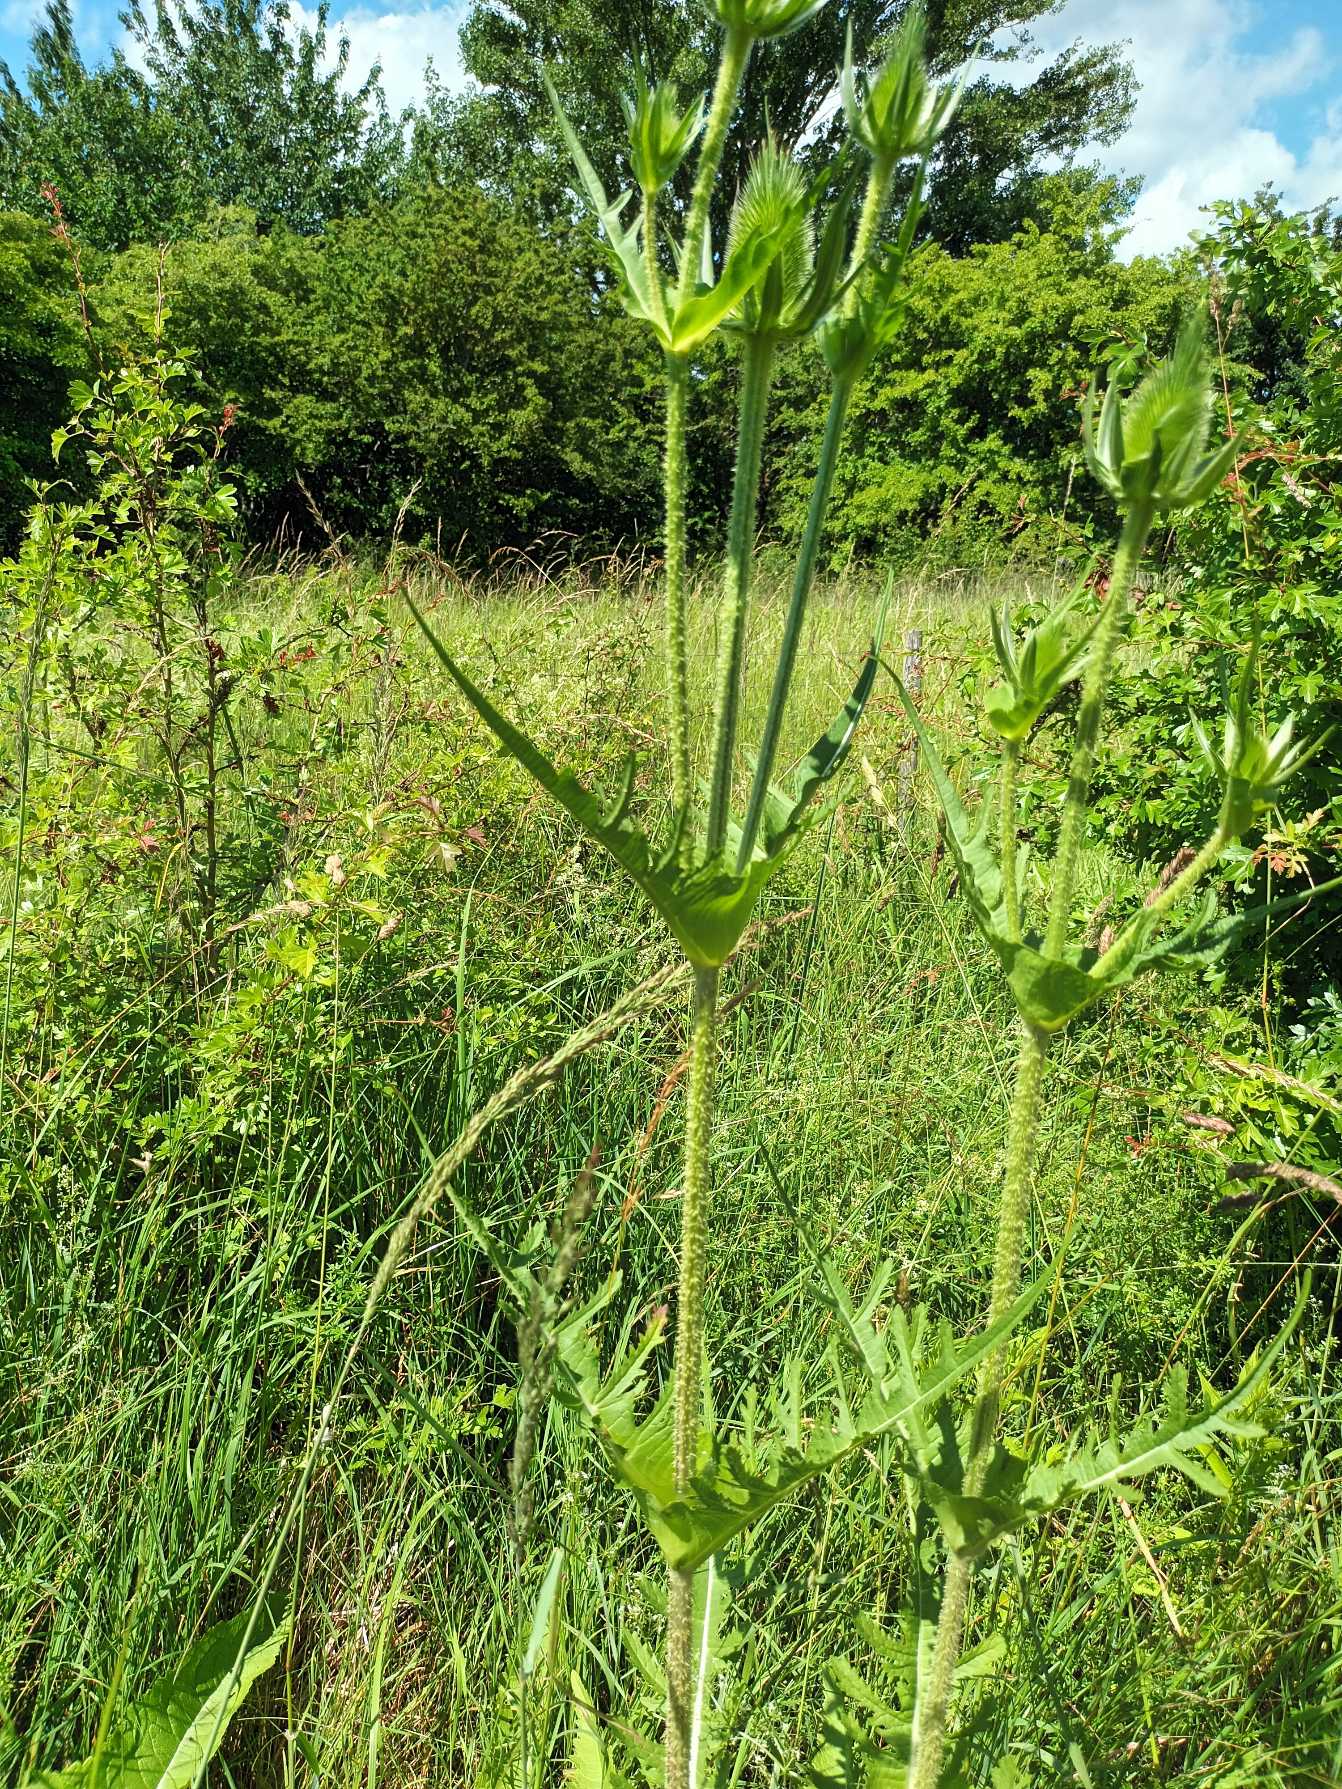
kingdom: Plantae
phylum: Tracheophyta
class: Magnoliopsida
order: Dipsacales
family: Caprifoliaceae
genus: Dipsacus
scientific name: Dipsacus laciniatus
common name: Fliget kartebolle
